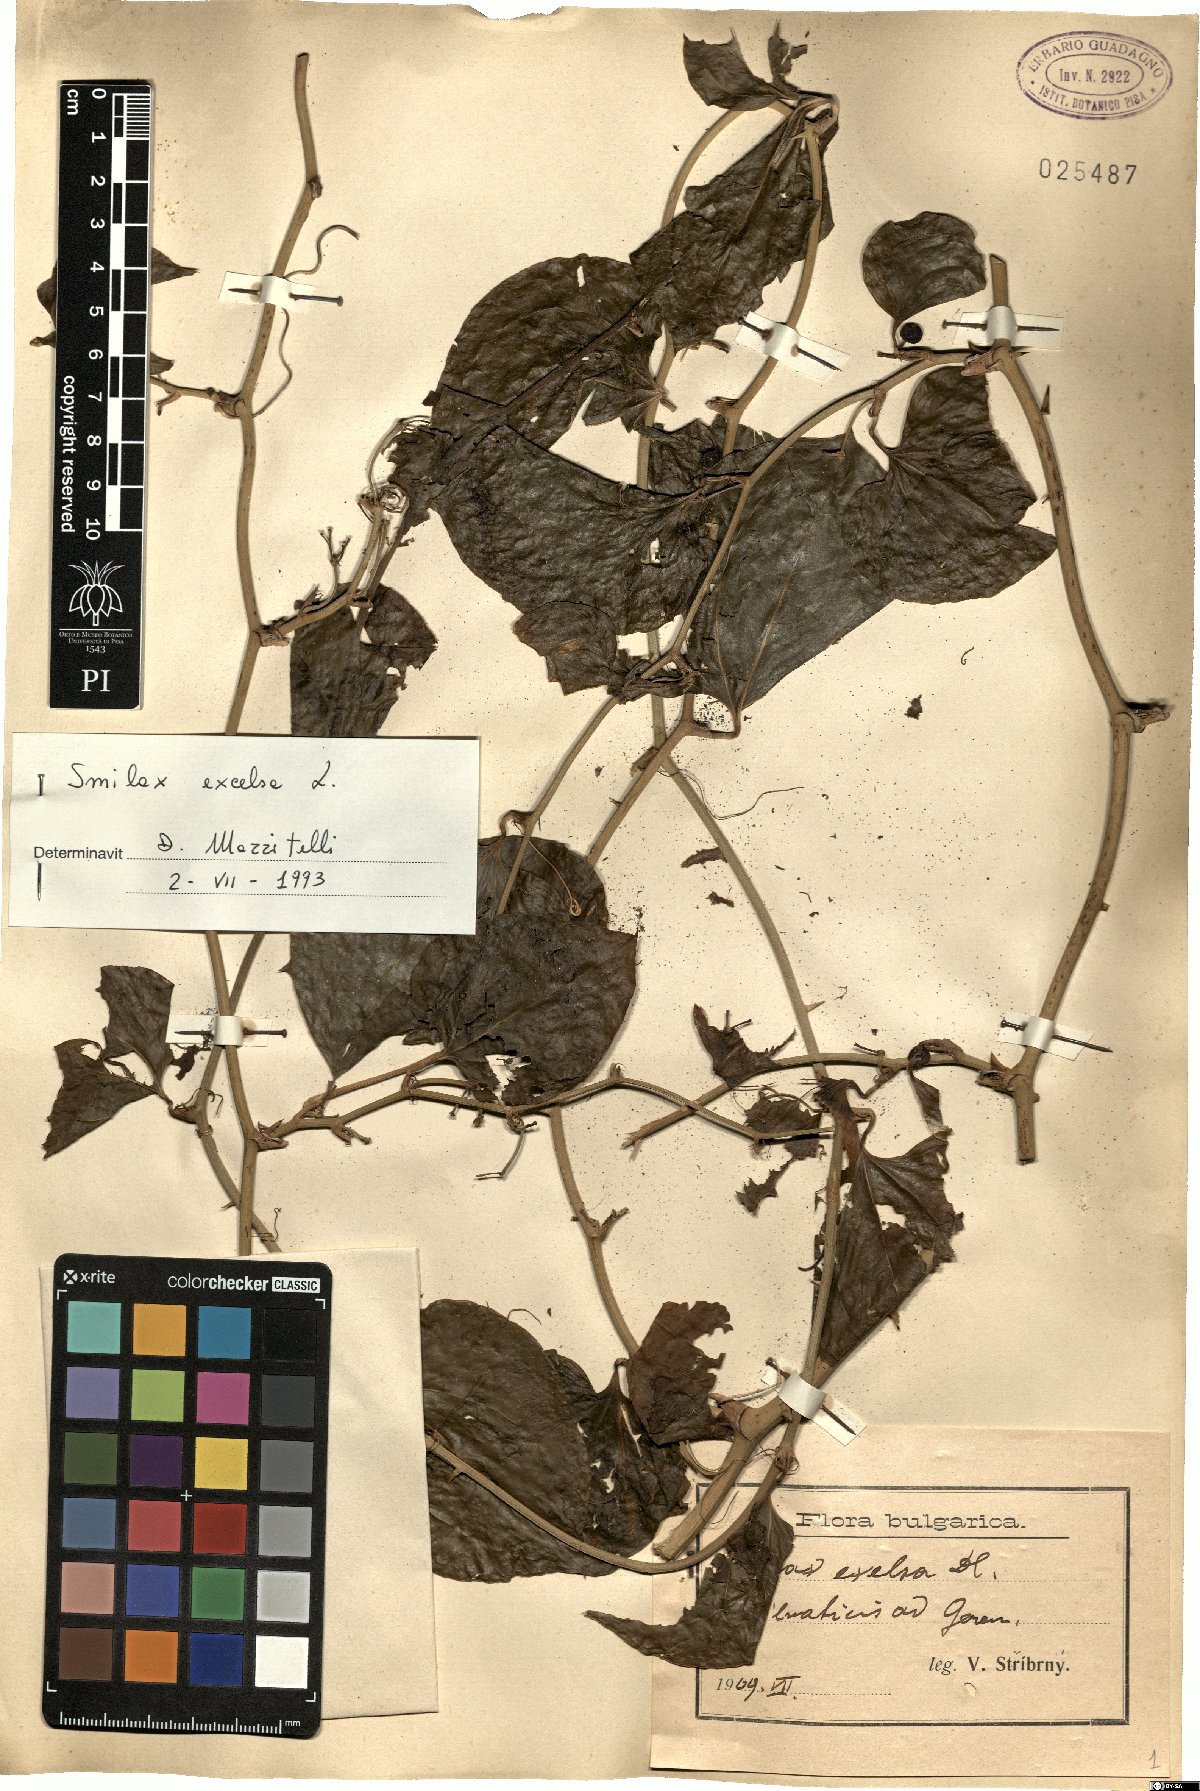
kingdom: Plantae
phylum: Tracheophyta
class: Liliopsida
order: Liliales
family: Smilacaceae
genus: Smilax
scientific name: Smilax excelsa
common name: Larger smilax
